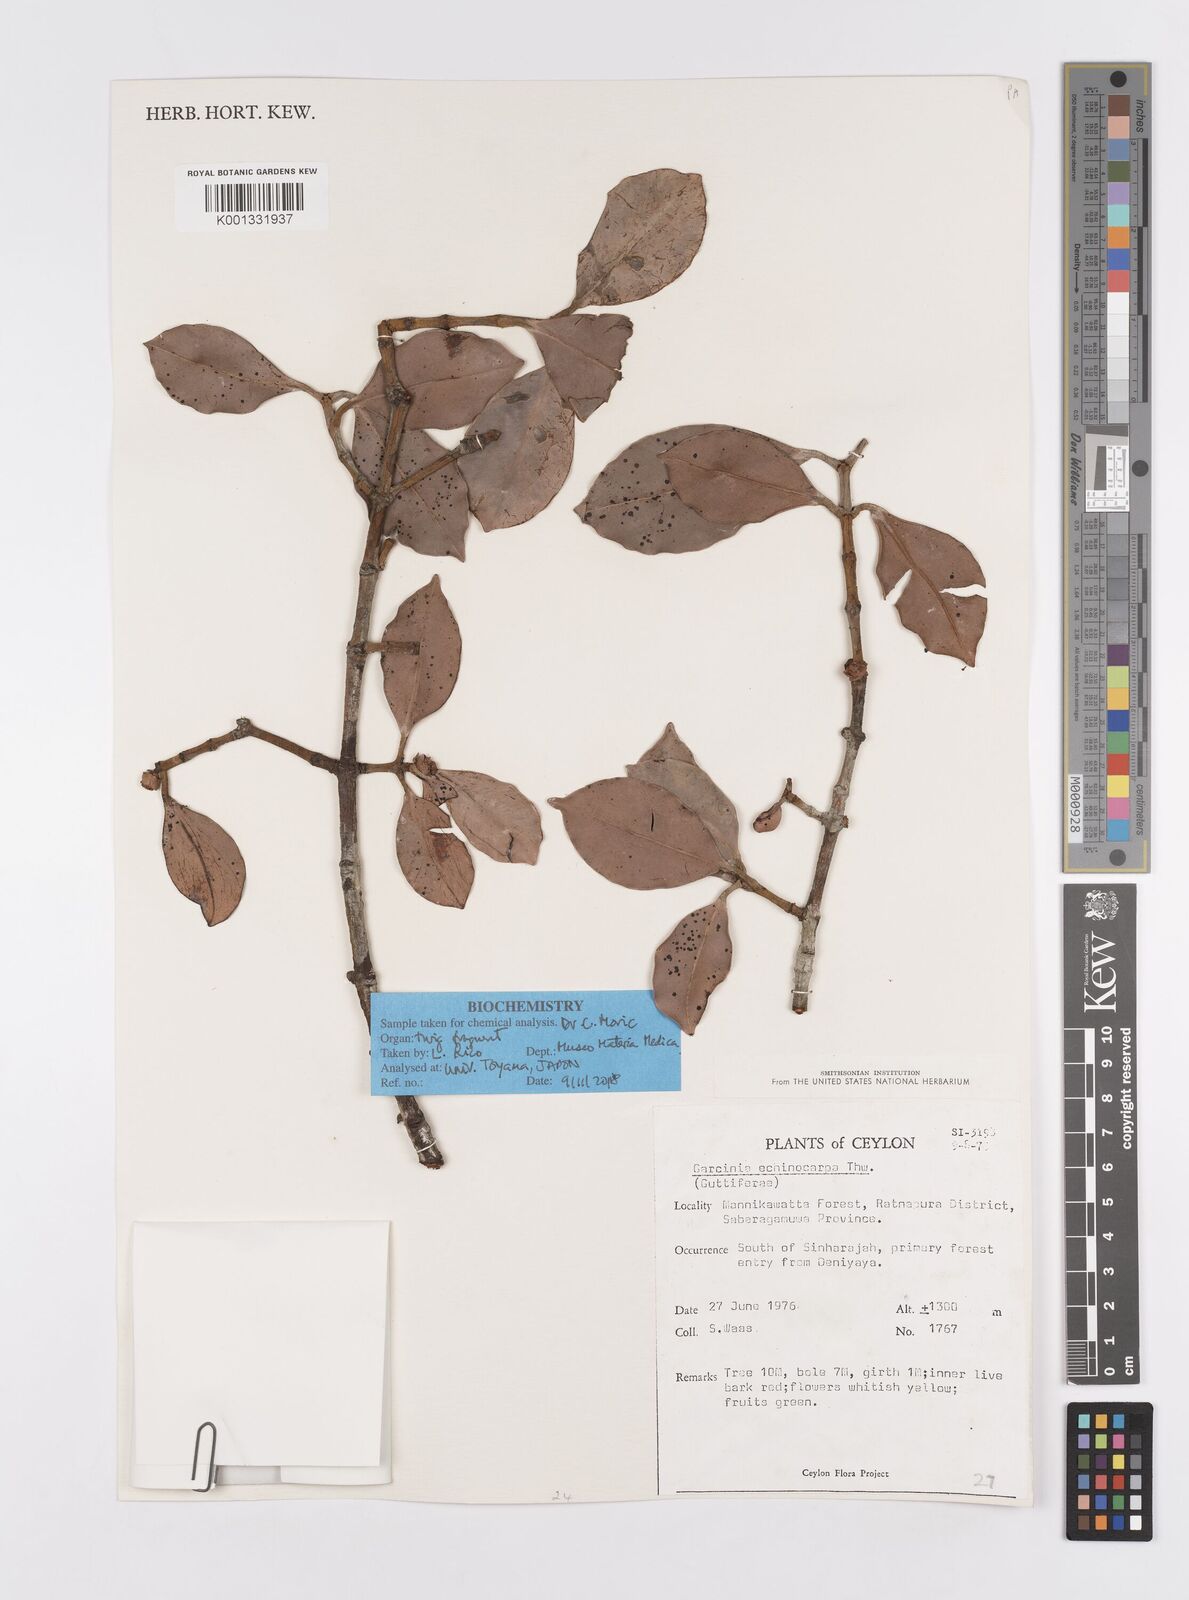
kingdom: Plantae
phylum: Tracheophyta
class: Magnoliopsida
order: Malpighiales
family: Clusiaceae
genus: Garcinia
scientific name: Garcinia echinocarpa
